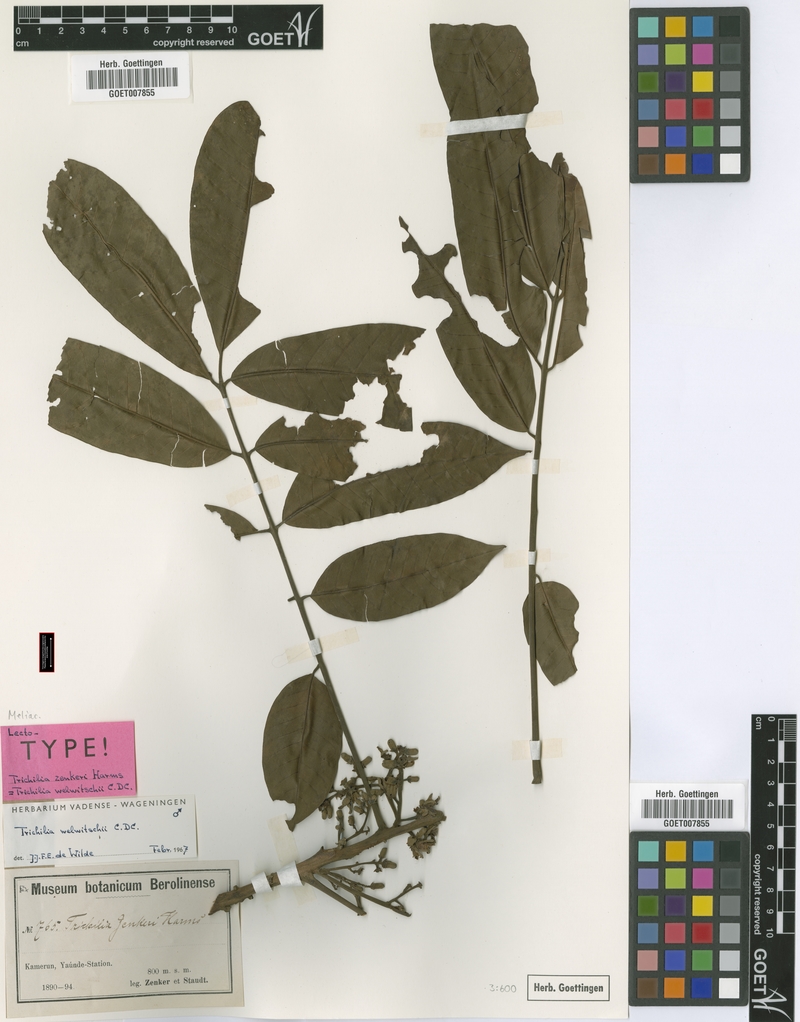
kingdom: Plantae
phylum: Tracheophyta
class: Magnoliopsida
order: Sapindales
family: Meliaceae
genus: Trichilia
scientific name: Trichilia welwitschii
